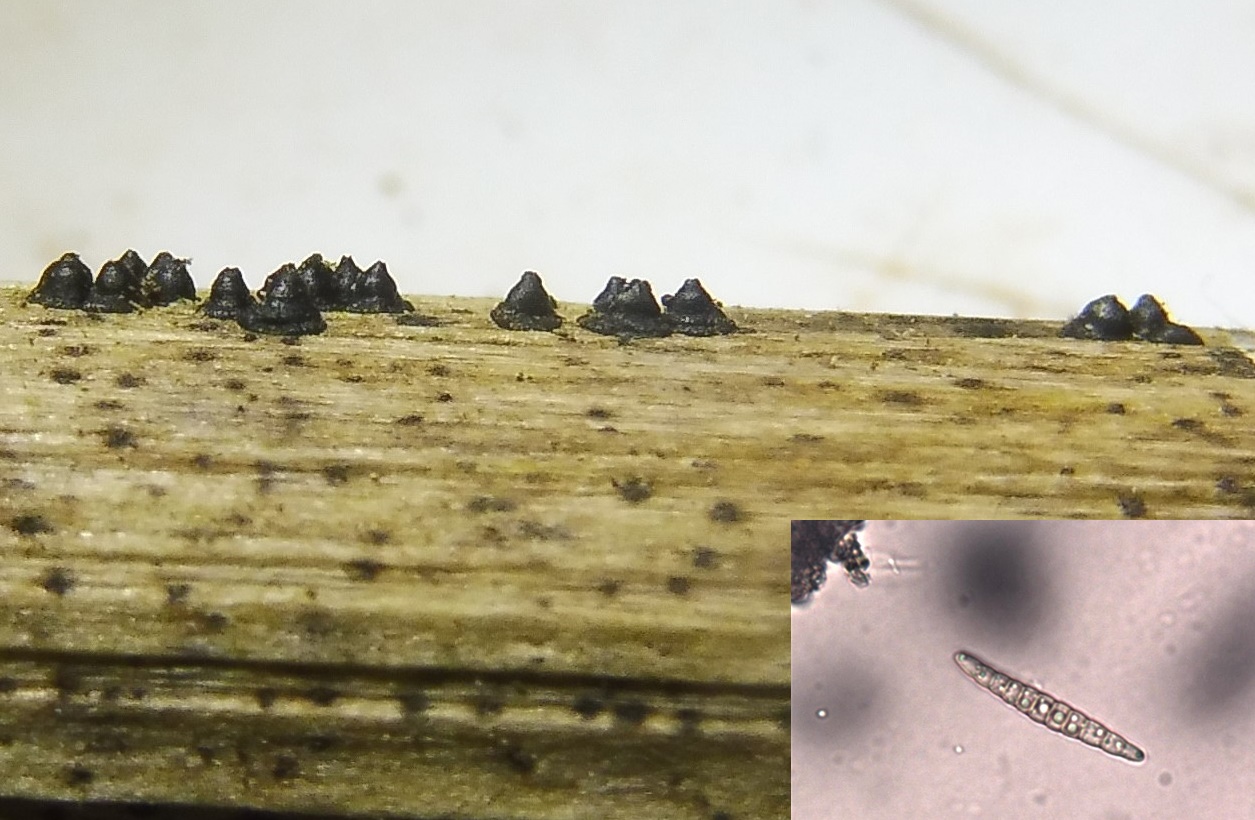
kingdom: Fungi
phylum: Ascomycota
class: Dothideomycetes
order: Pleosporales
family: Leptosphaeriaceae
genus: Leptosphaeria
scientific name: Leptosphaeria acuta
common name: spids kulkegle
